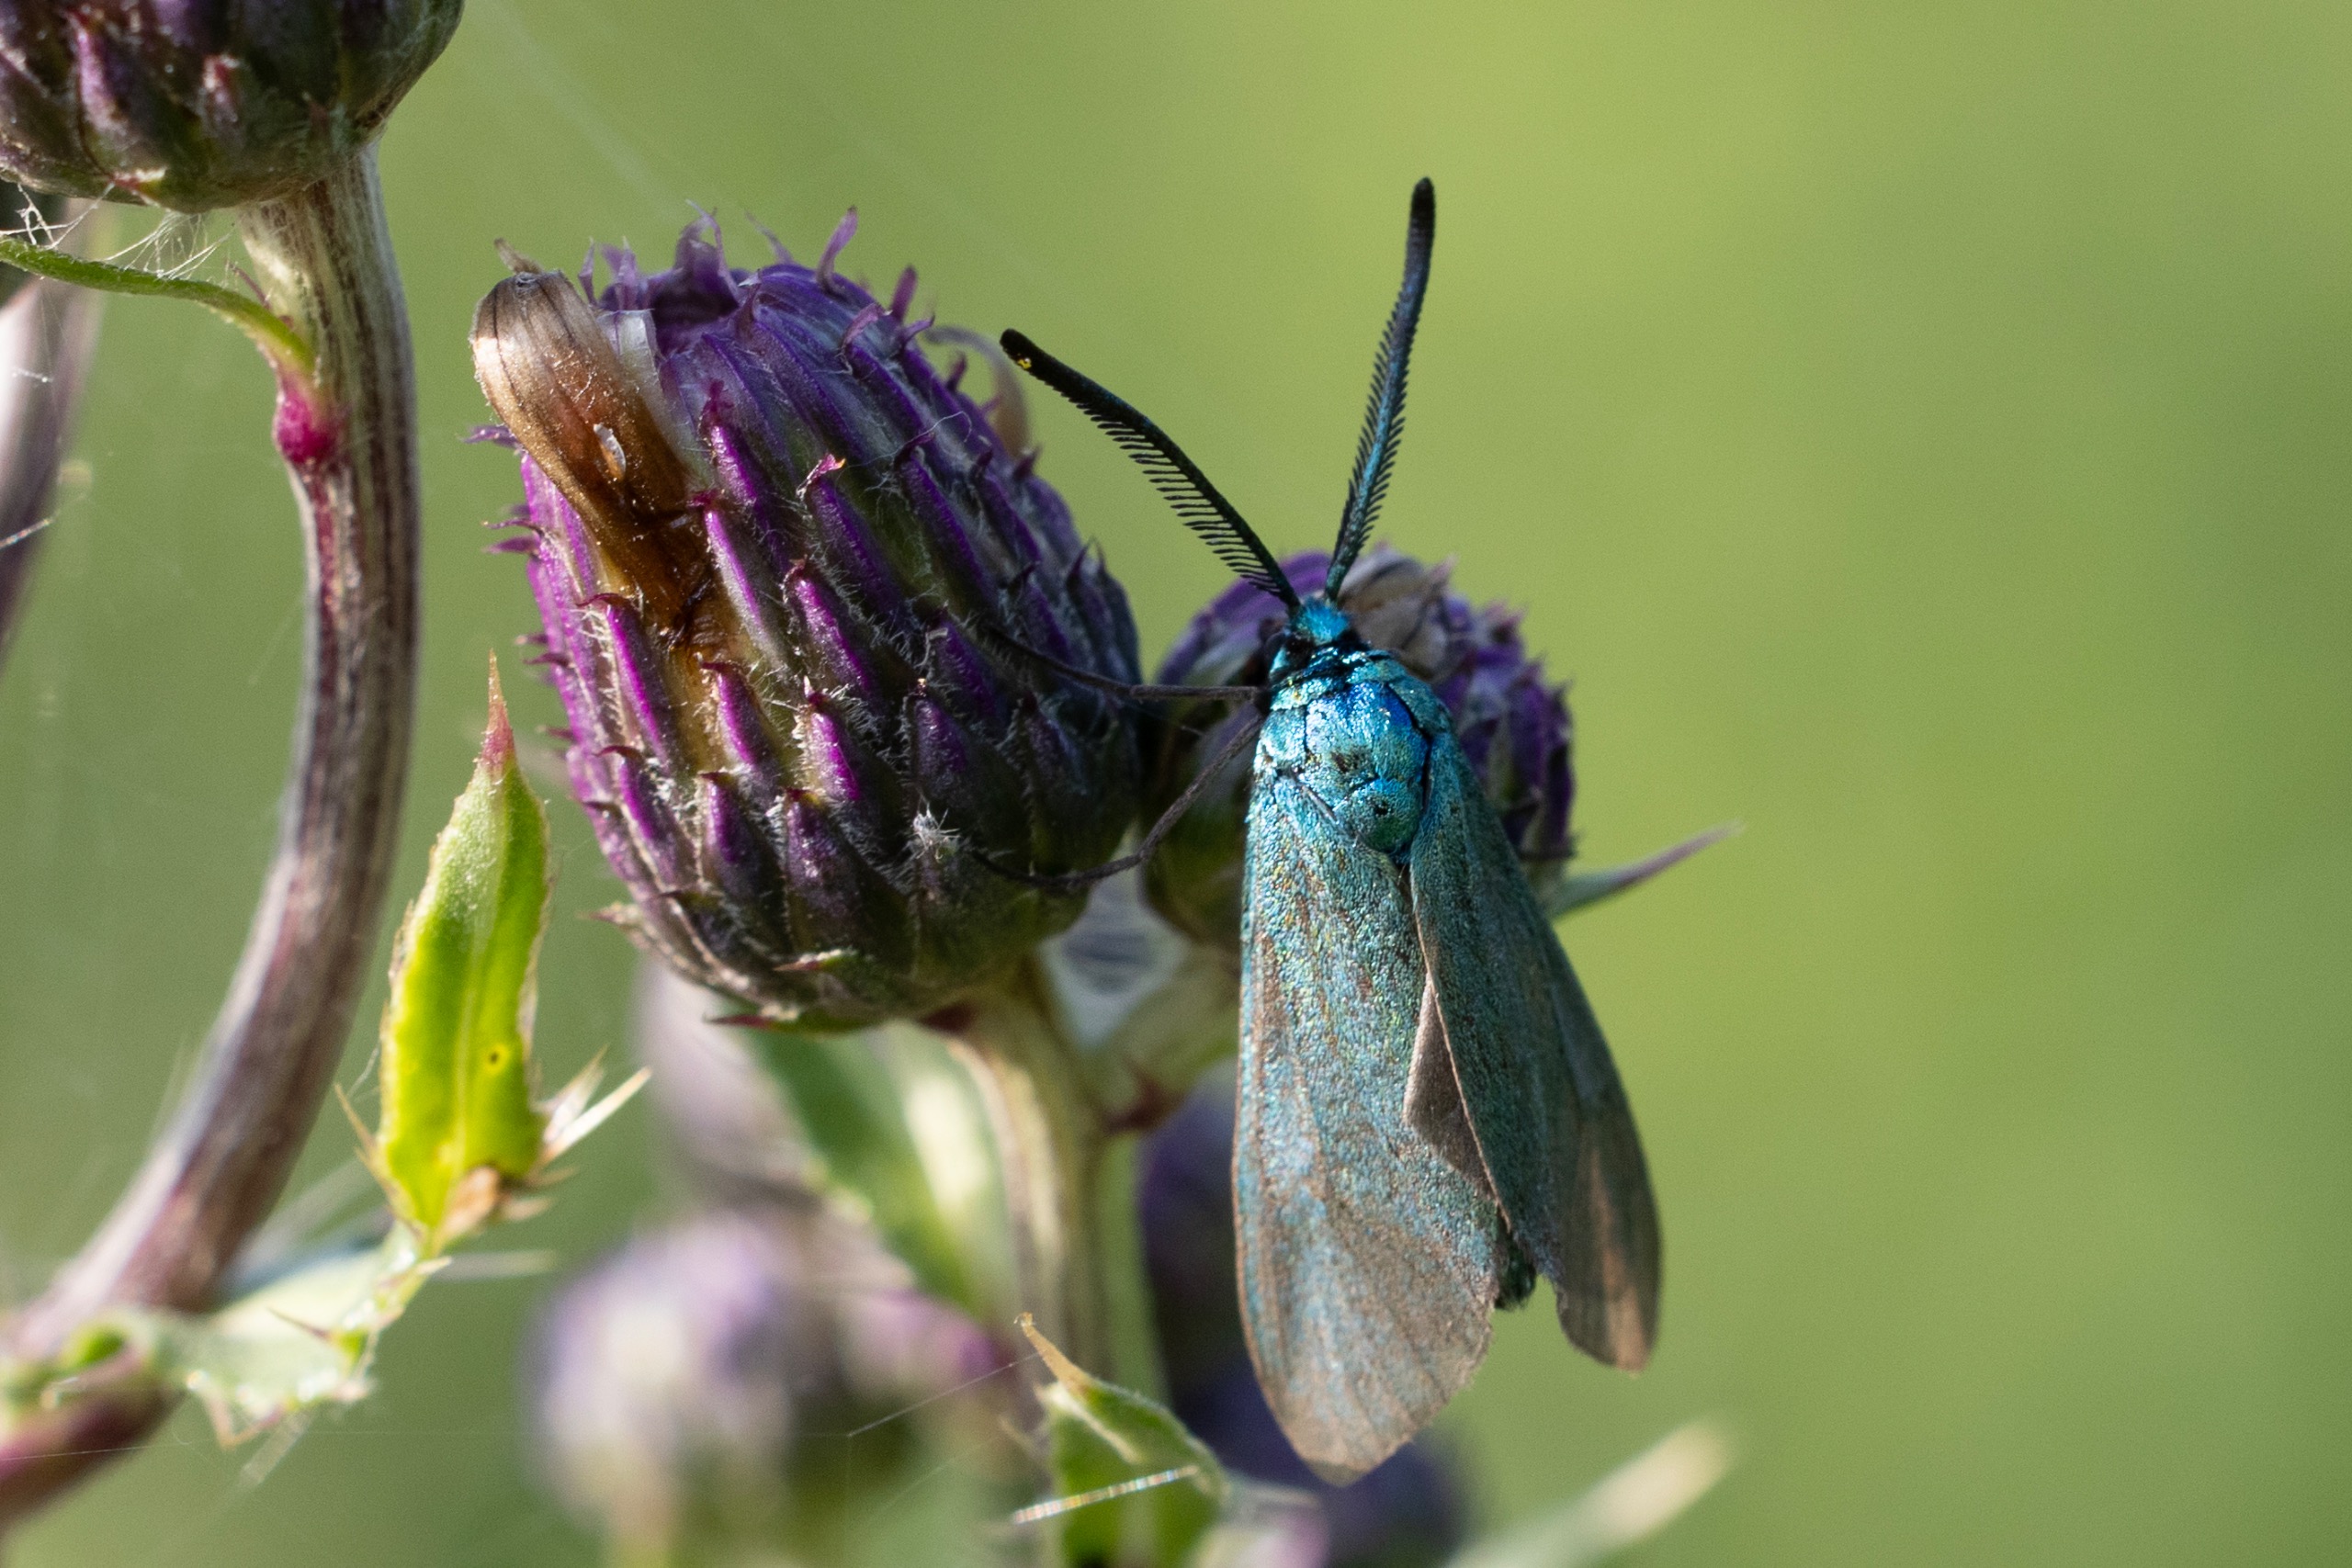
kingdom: Animalia
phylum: Arthropoda
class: Insecta
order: Lepidoptera
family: Zygaenidae
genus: Adscita
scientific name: Adscita statices
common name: Metalvinge
